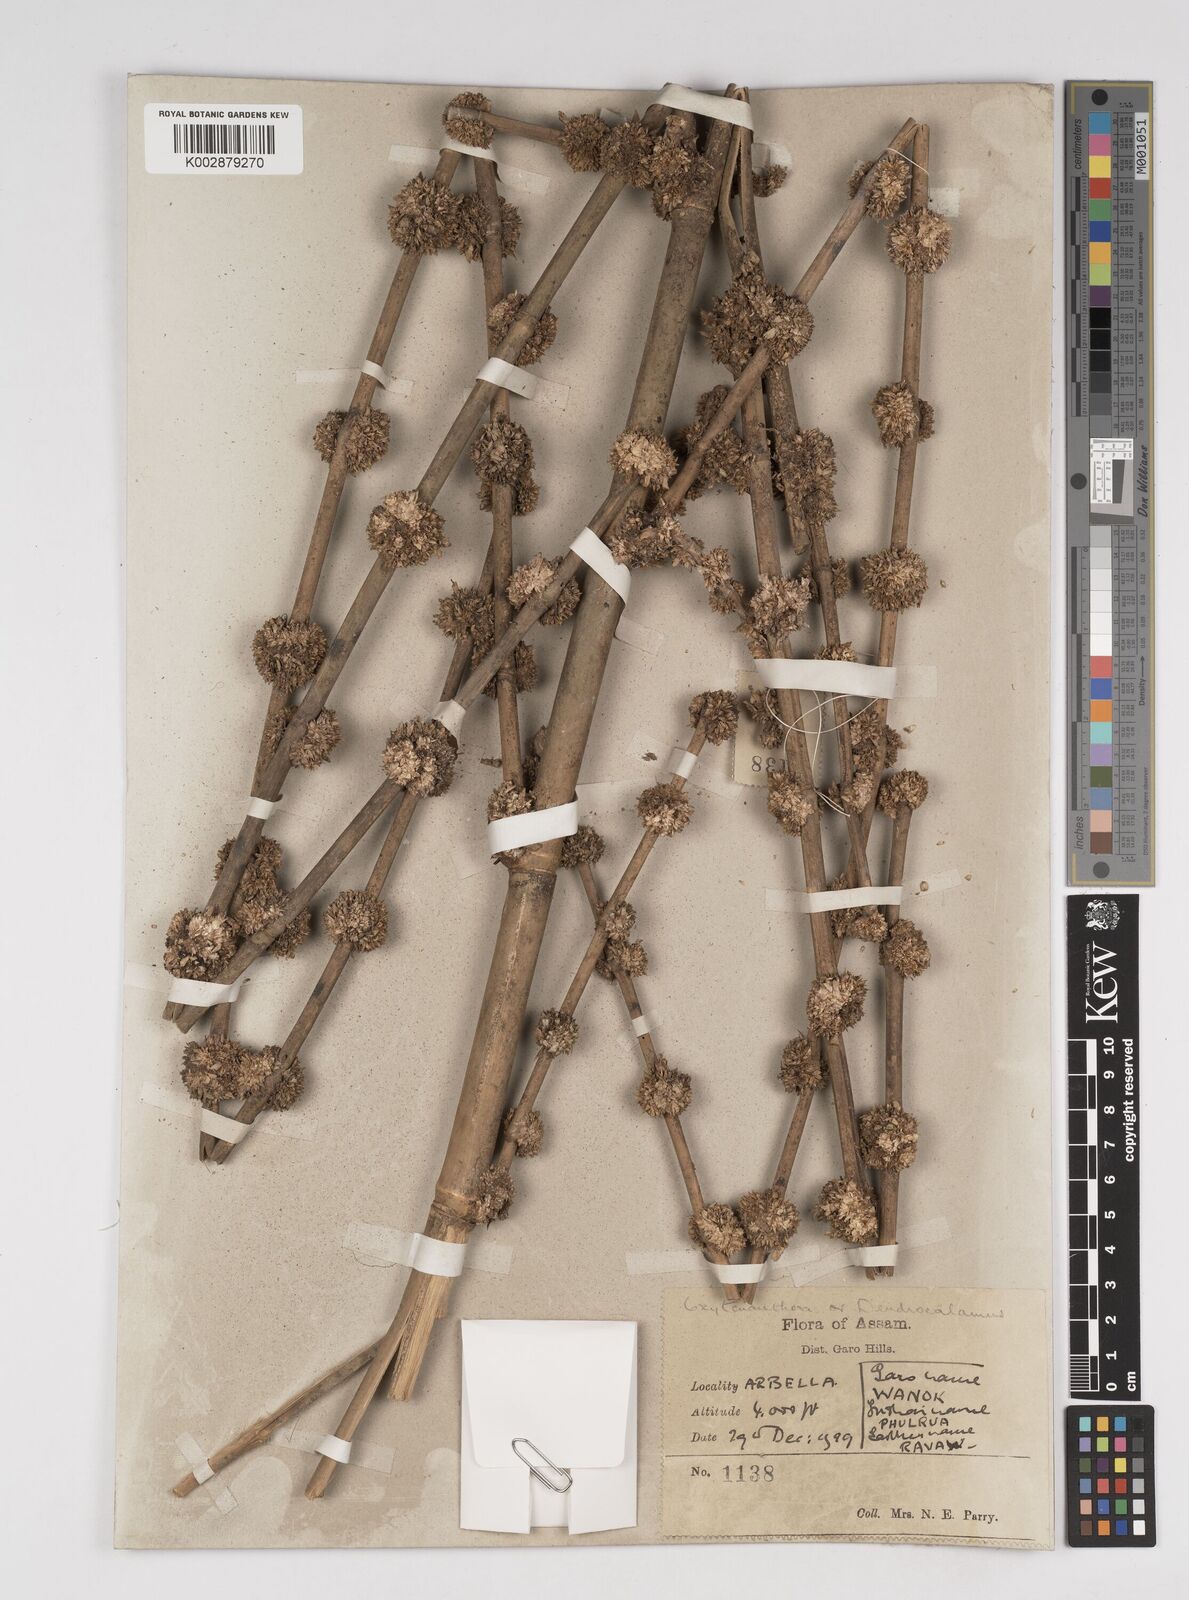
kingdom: Plantae
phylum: Tracheophyta
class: Liliopsida
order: Poales
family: Poaceae
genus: Dendrocalamus
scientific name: Dendrocalamus
